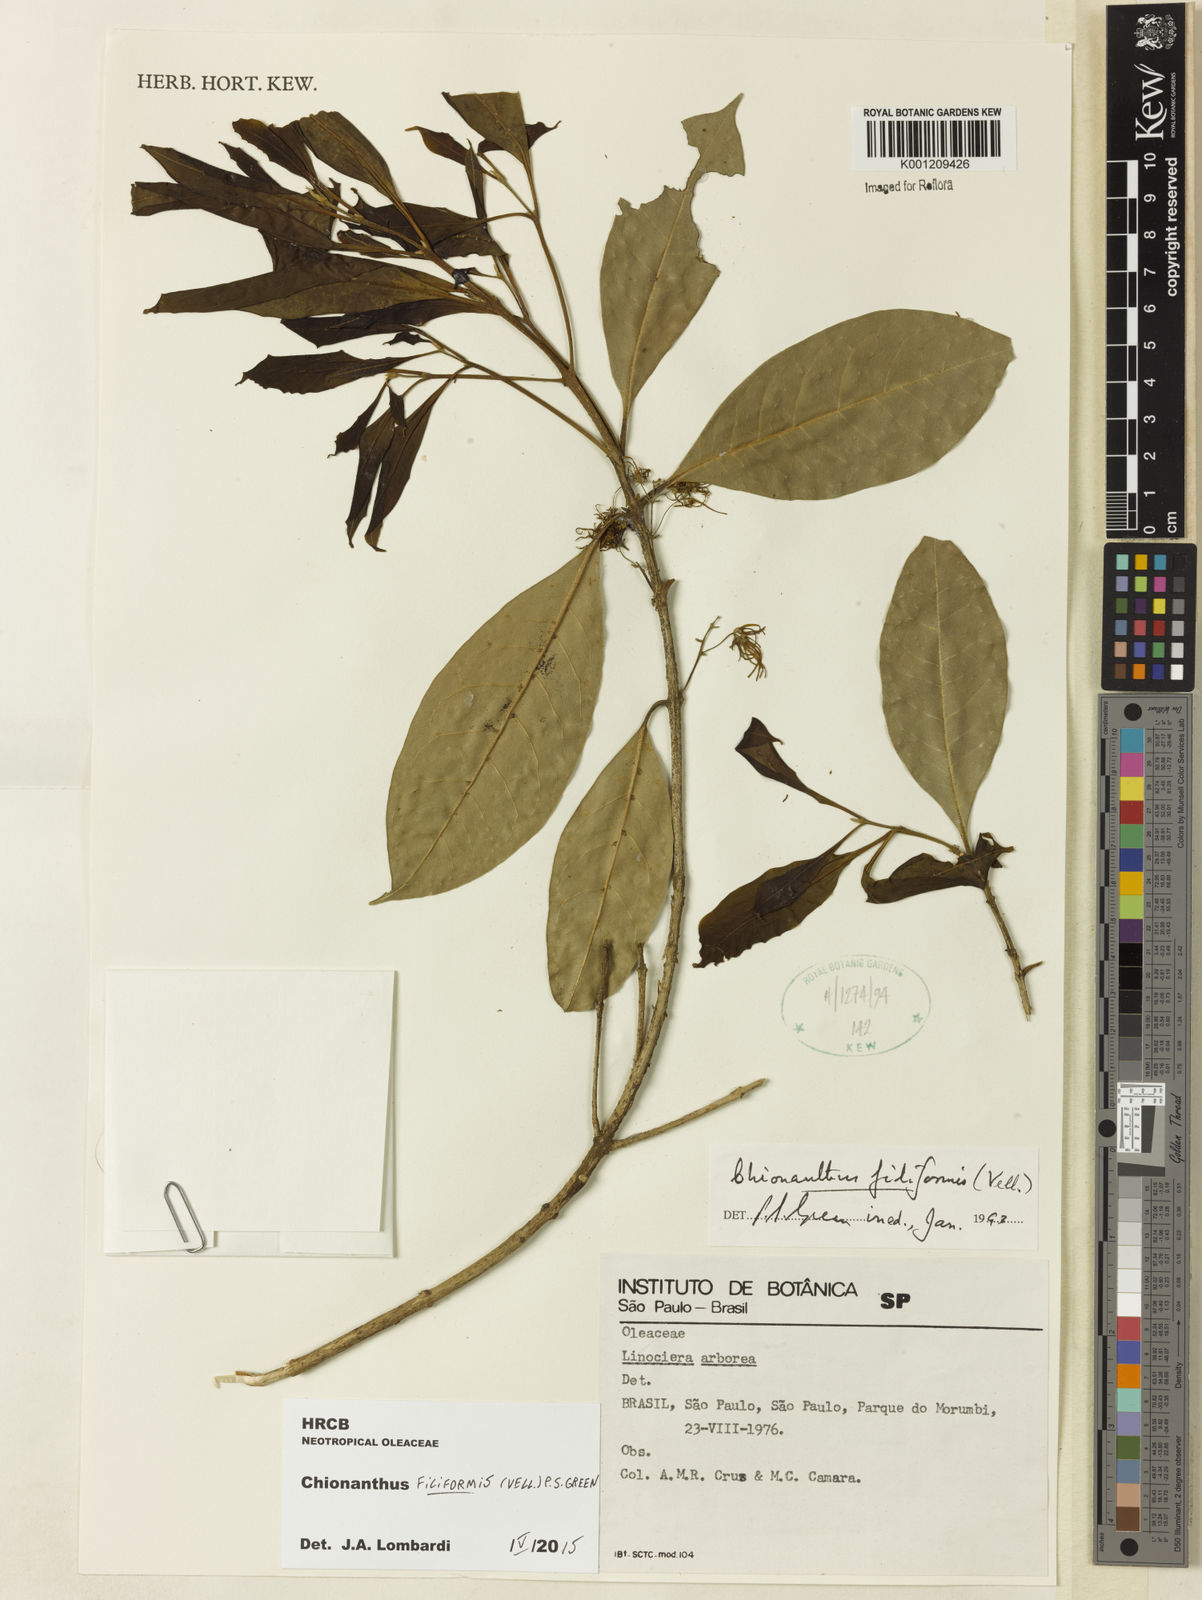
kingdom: Plantae
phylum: Tracheophyta
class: Magnoliopsida
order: Lamiales
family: Oleaceae
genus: Chionanthus
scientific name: Chionanthus filiformis
